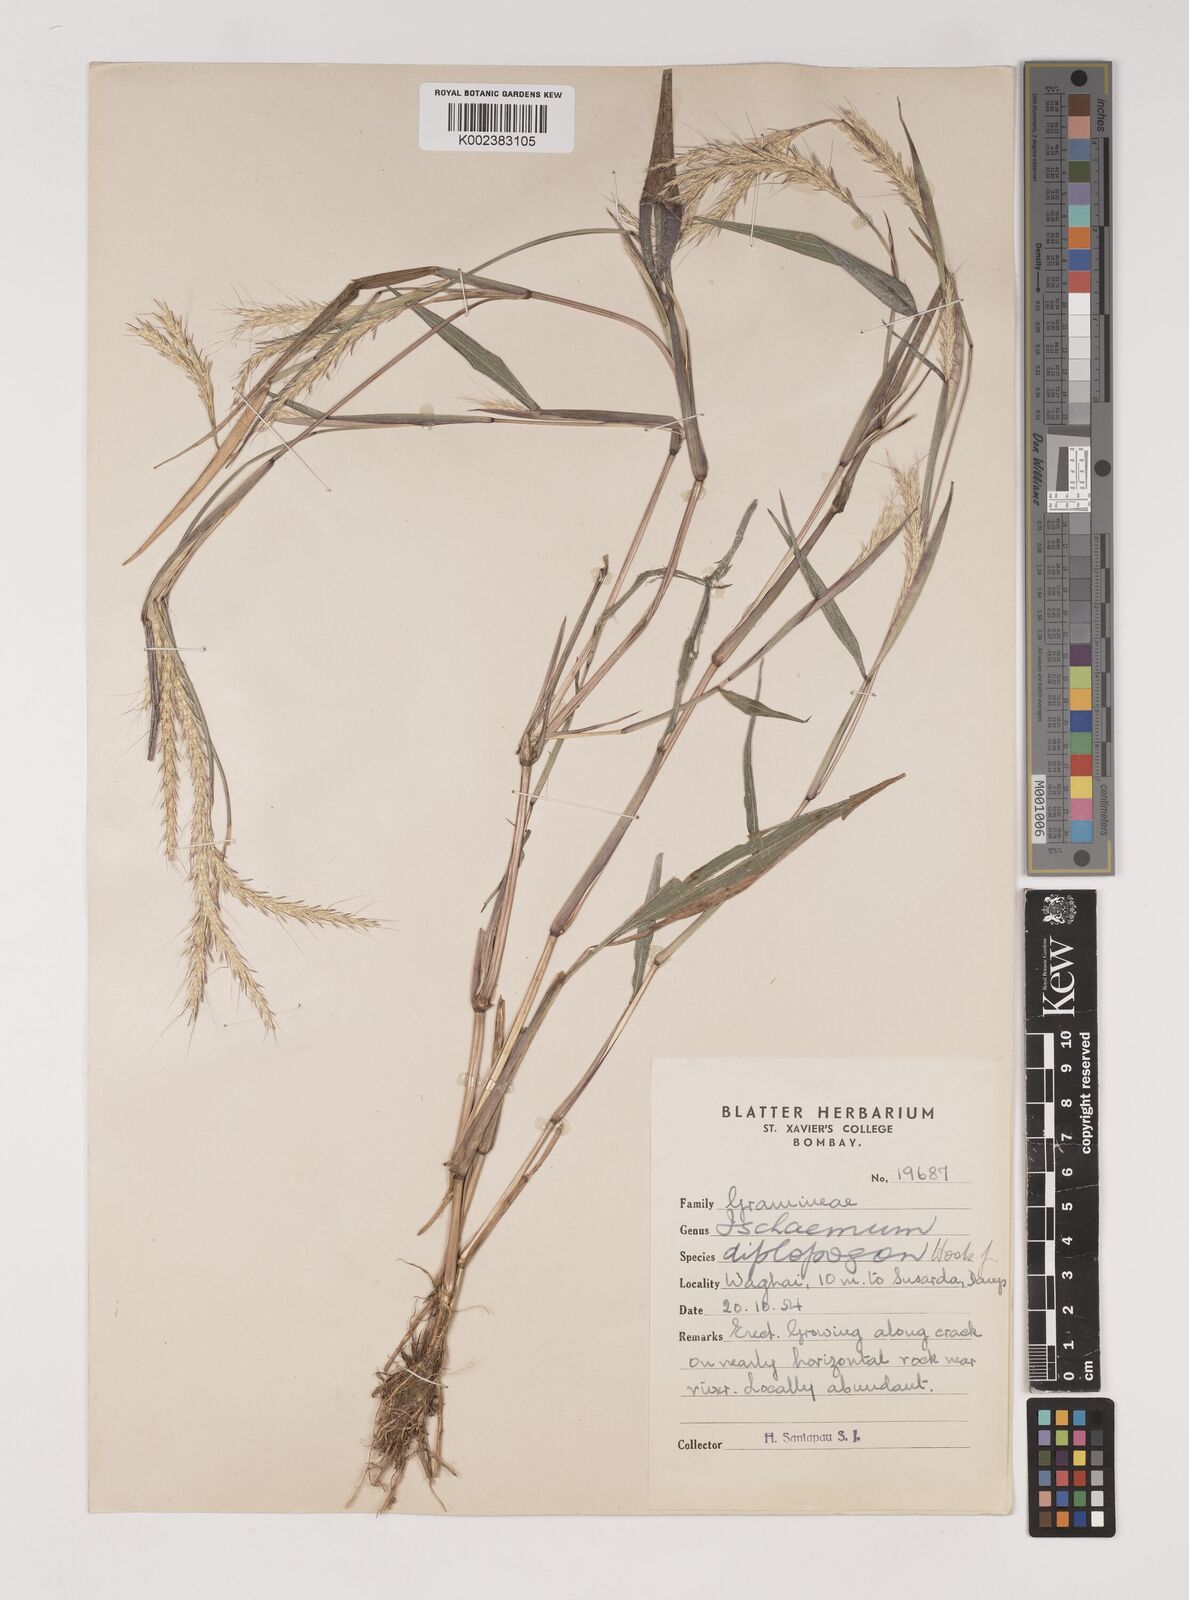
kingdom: Plantae
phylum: Tracheophyta
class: Liliopsida
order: Poales
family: Poaceae
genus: Ischaemum
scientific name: Ischaemum diplopogon
